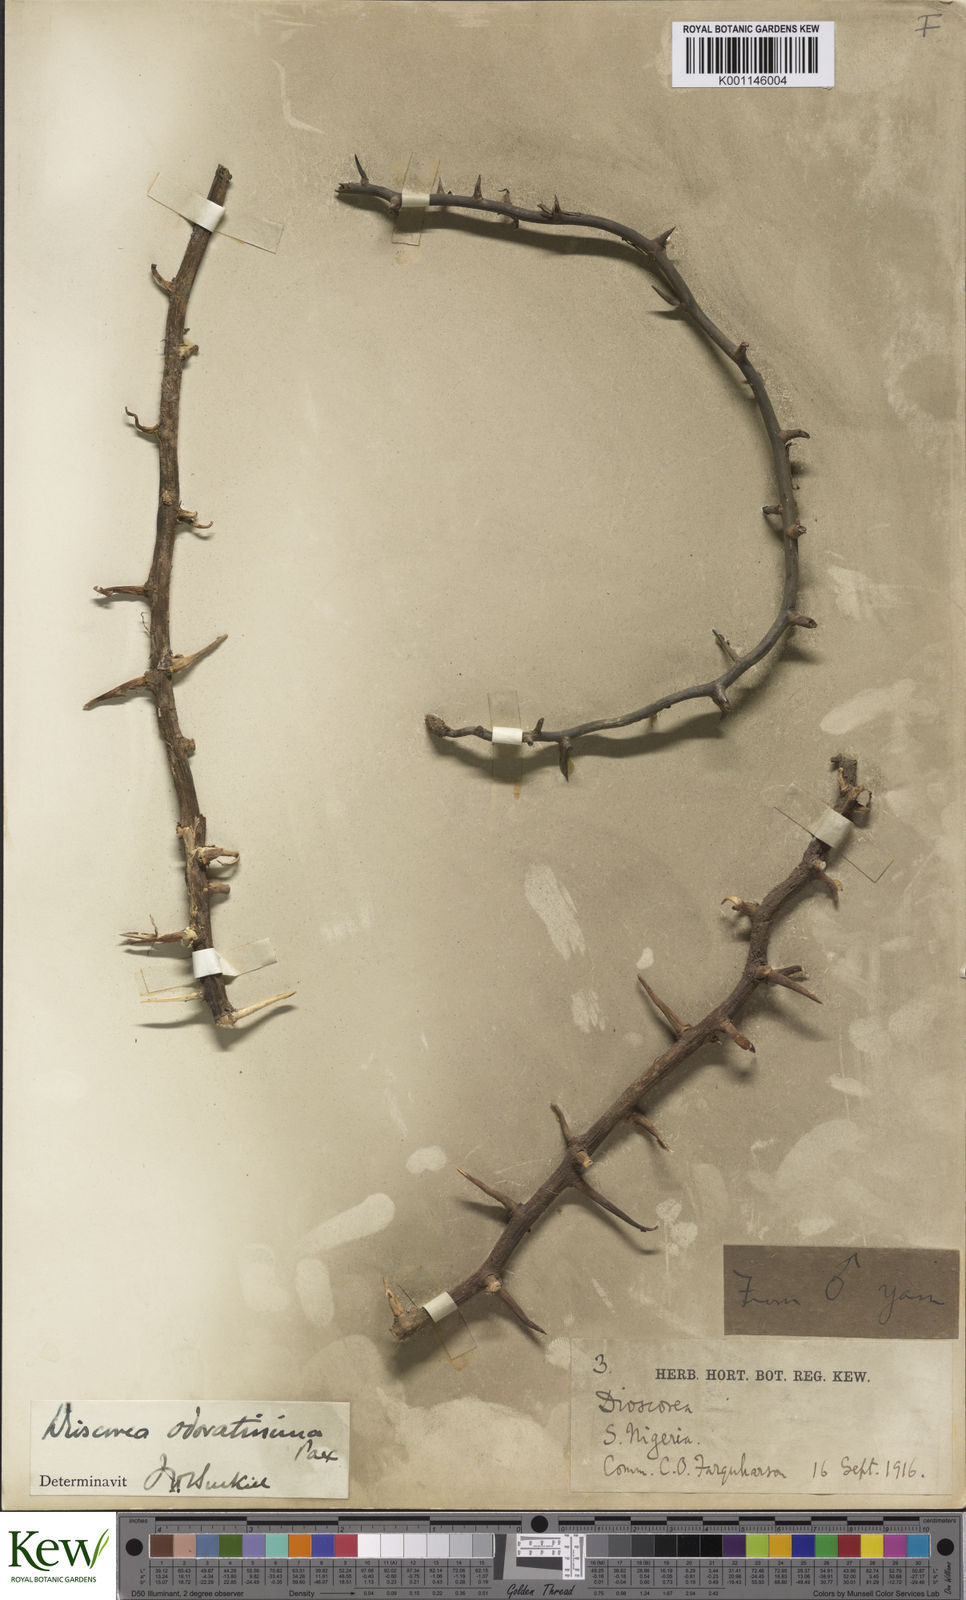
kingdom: Plantae
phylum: Tracheophyta
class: Liliopsida
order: Dioscoreales
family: Dioscoreaceae
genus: Dioscorea
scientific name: Dioscorea praehensilis
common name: Bush yam
